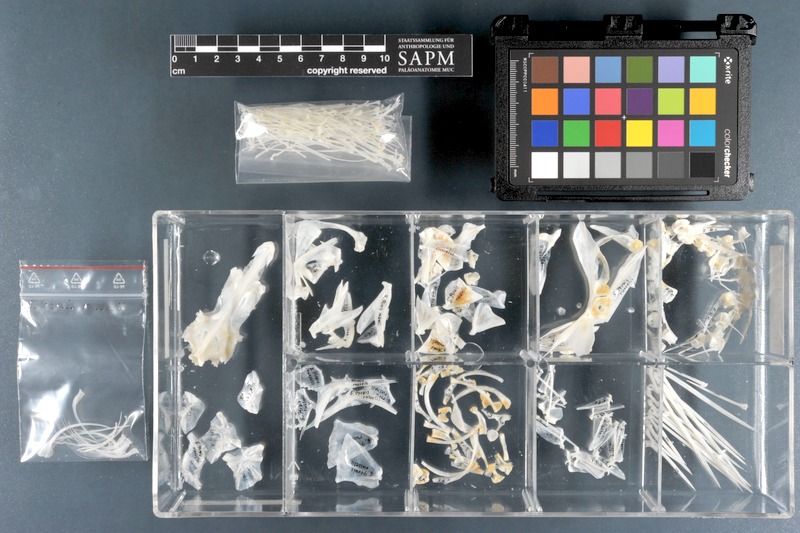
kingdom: Animalia
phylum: Chordata
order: Scorpaeniformes
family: Scorpaenidae
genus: Pterois
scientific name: Pterois russelii
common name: Plaintail firefish
